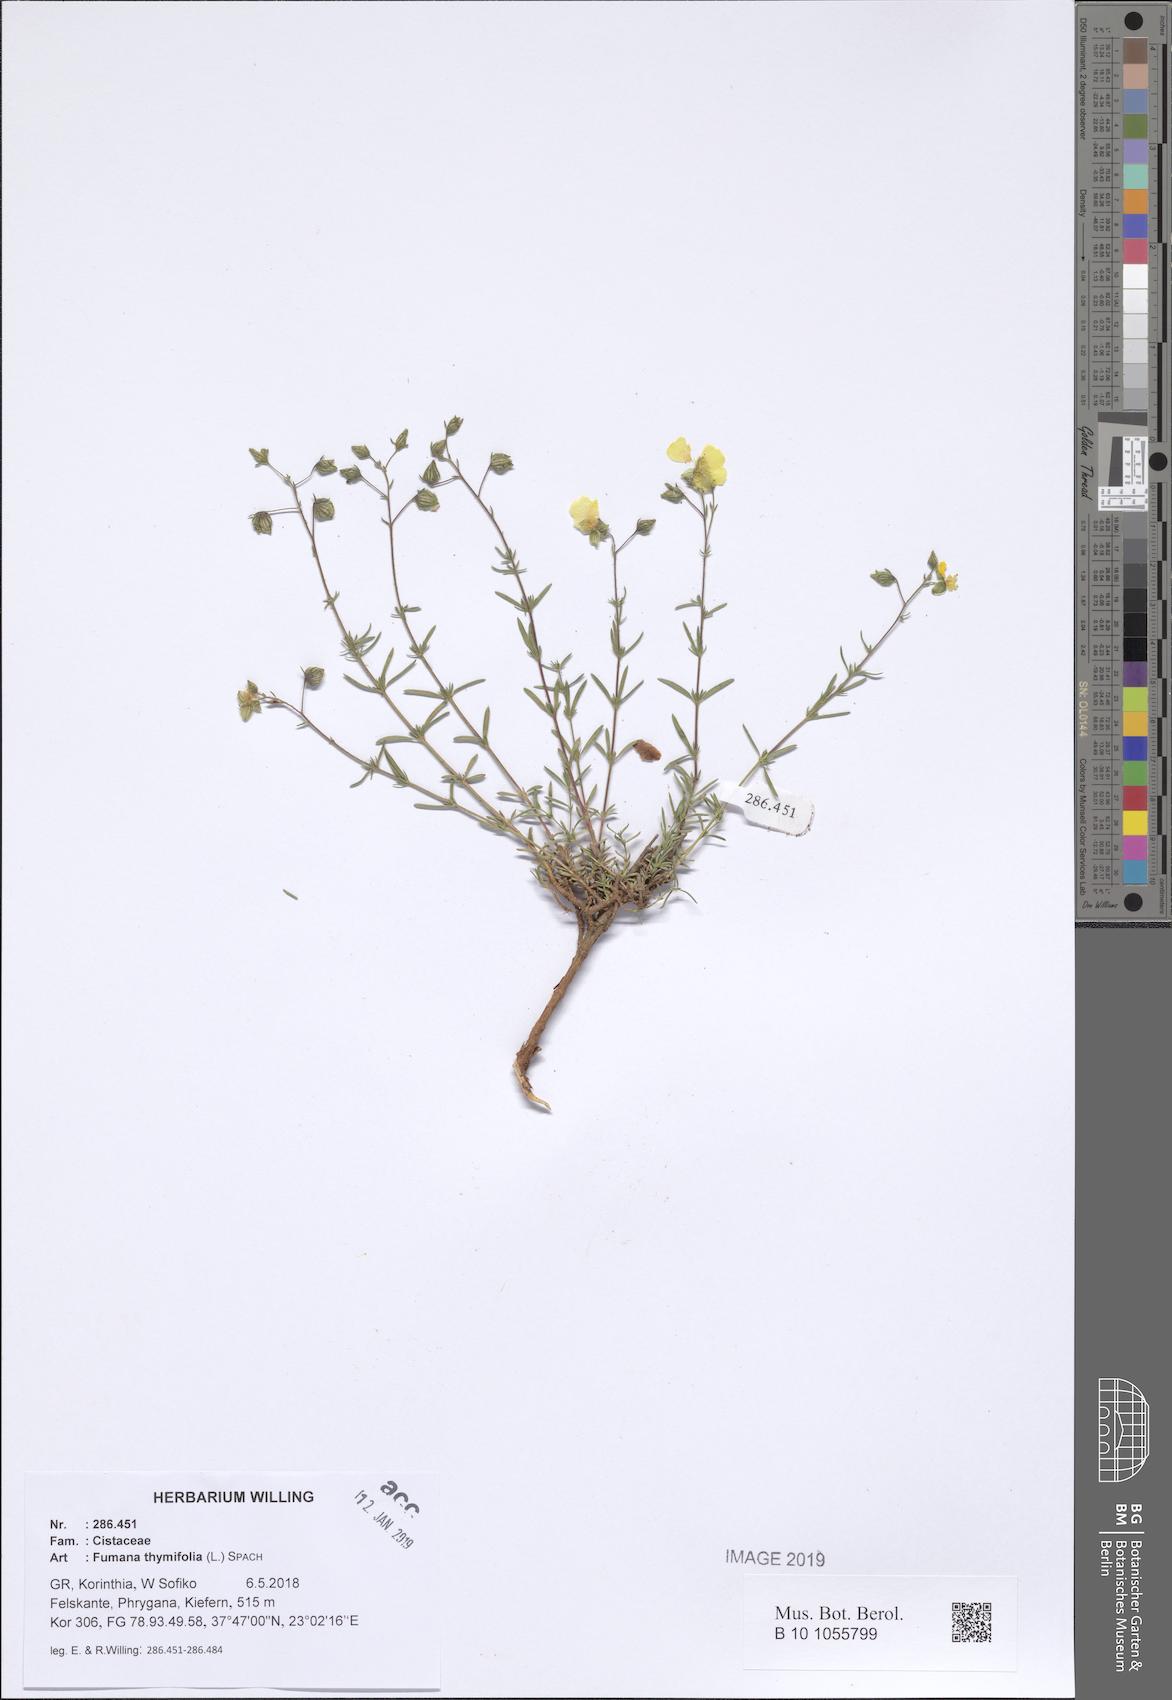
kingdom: Plantae
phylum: Tracheophyta
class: Magnoliopsida
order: Malvales
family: Cistaceae
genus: Fumana
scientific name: Fumana thymifolia
